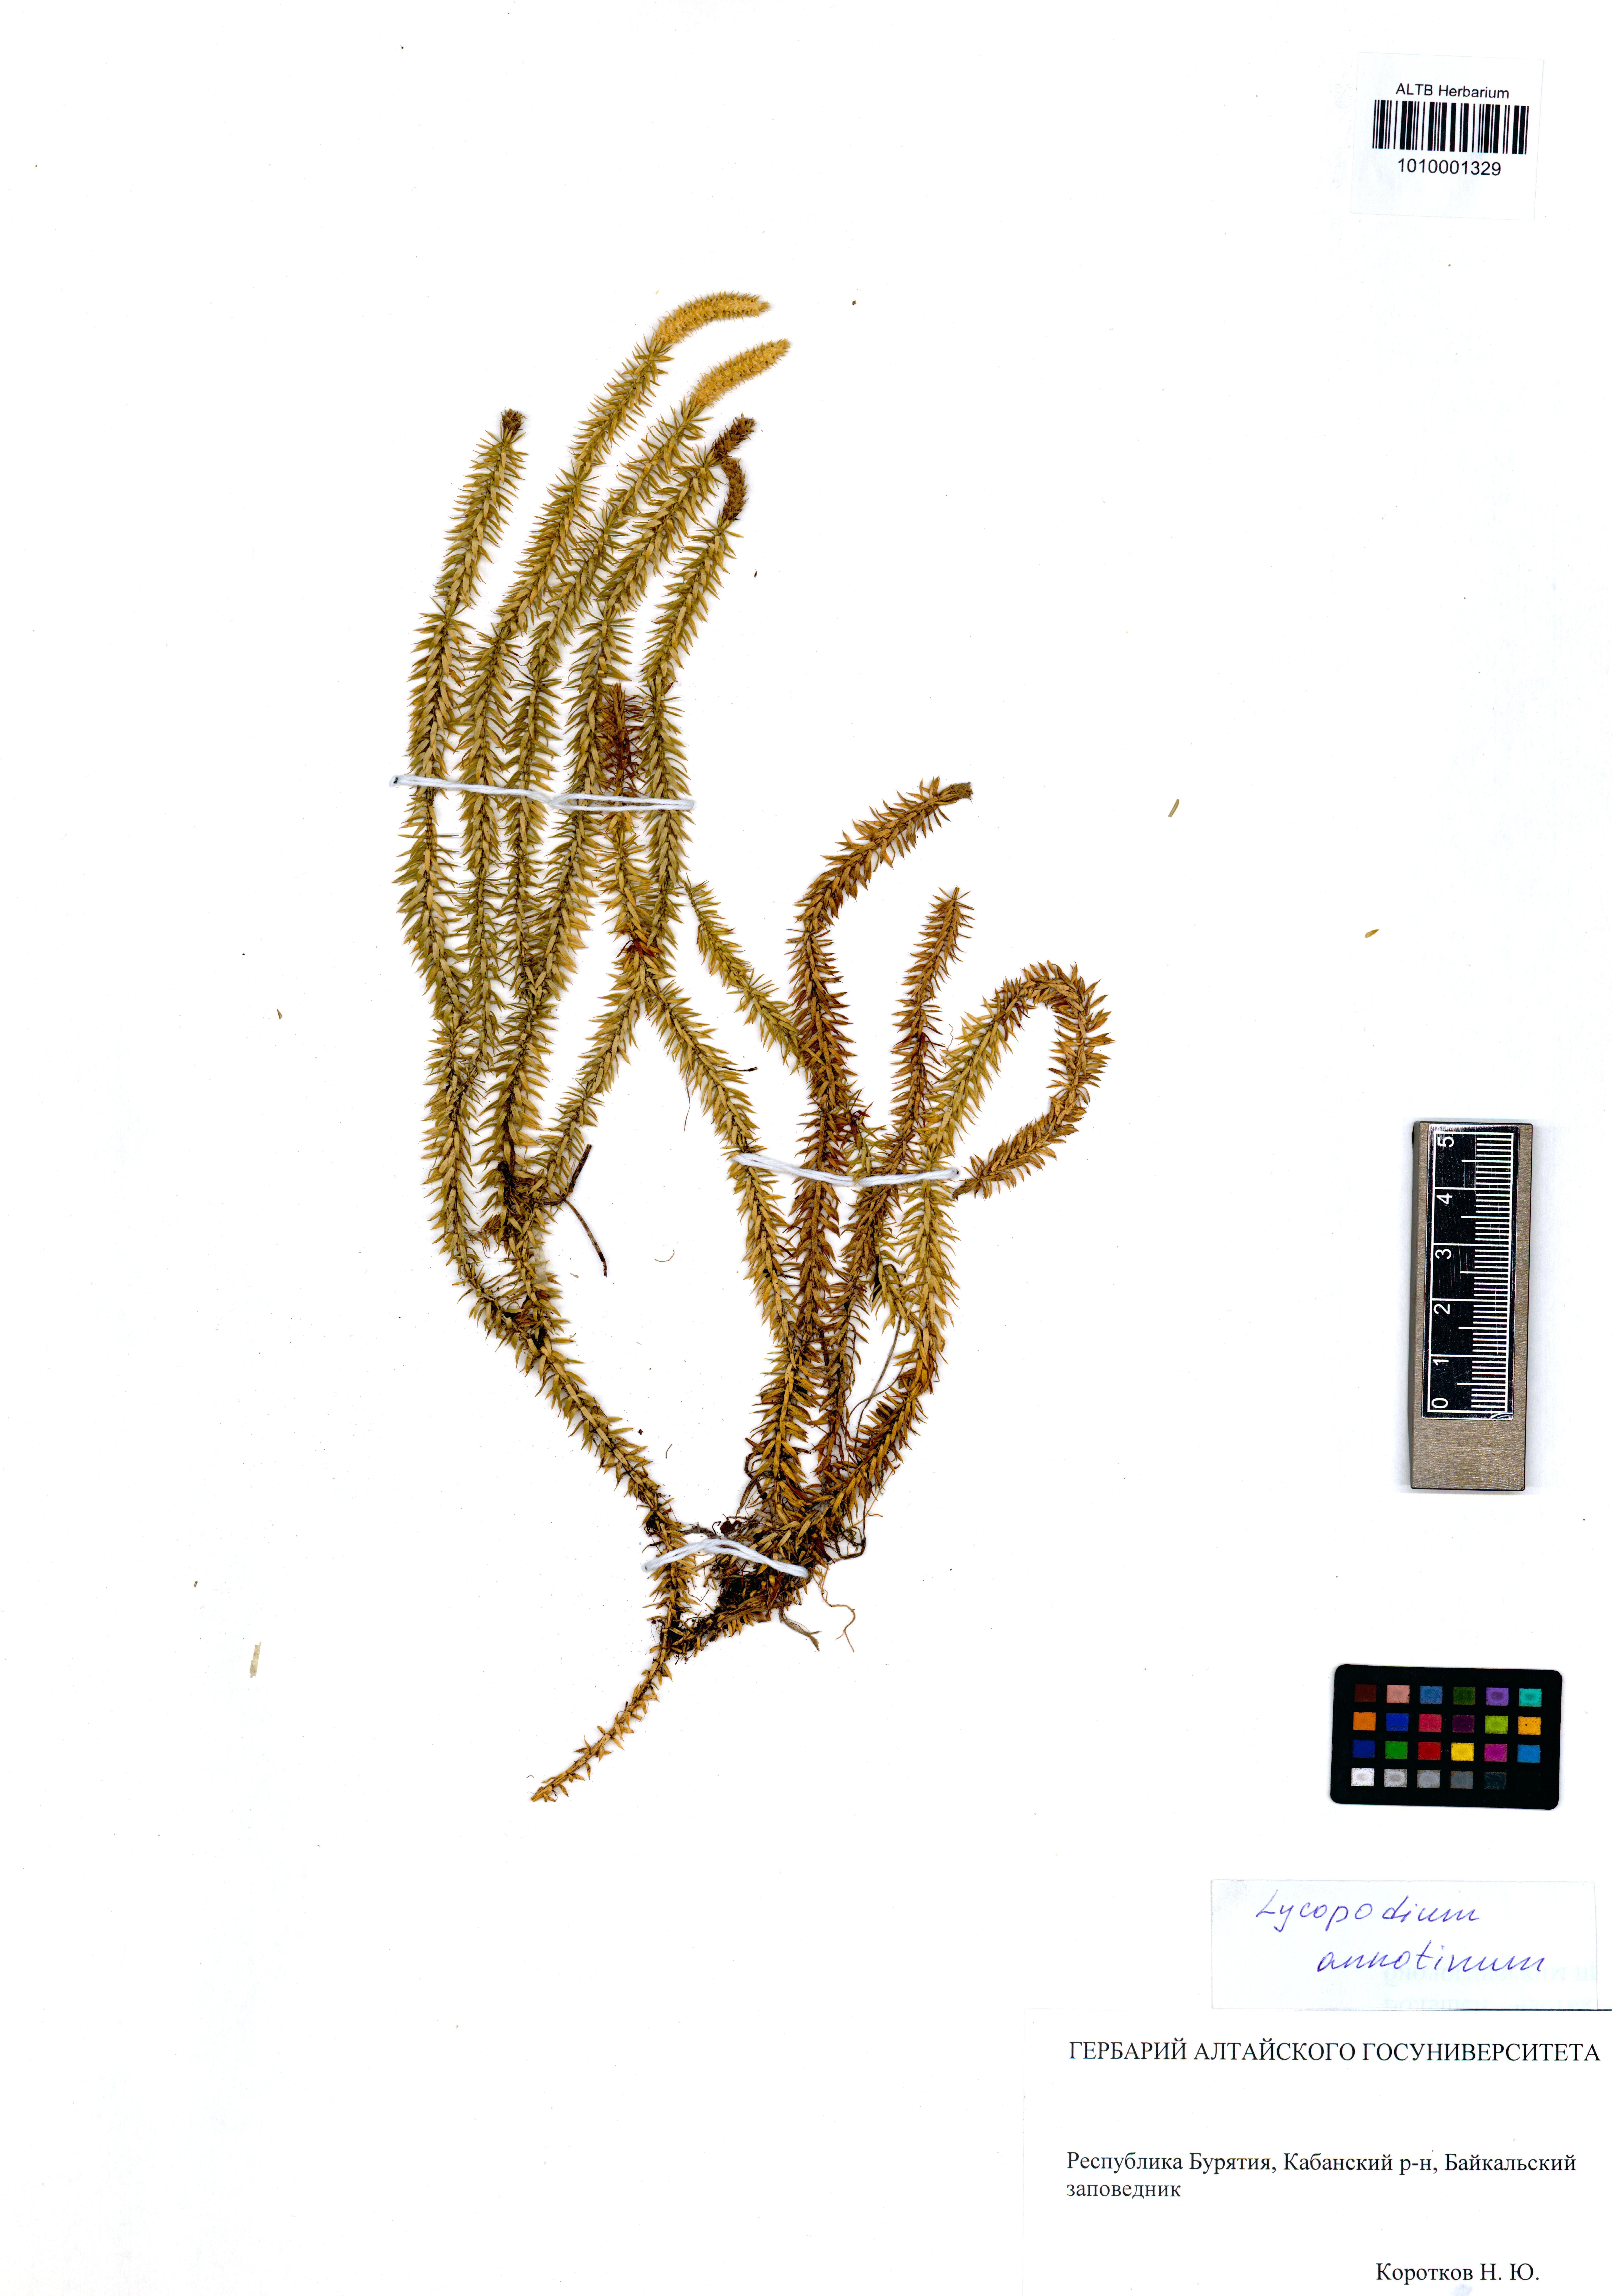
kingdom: Plantae
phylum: Tracheophyta
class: Lycopodiopsida
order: Lycopodiales
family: Lycopodiaceae
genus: Spinulum
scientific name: Spinulum annotinum
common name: Interrupted club-moss
